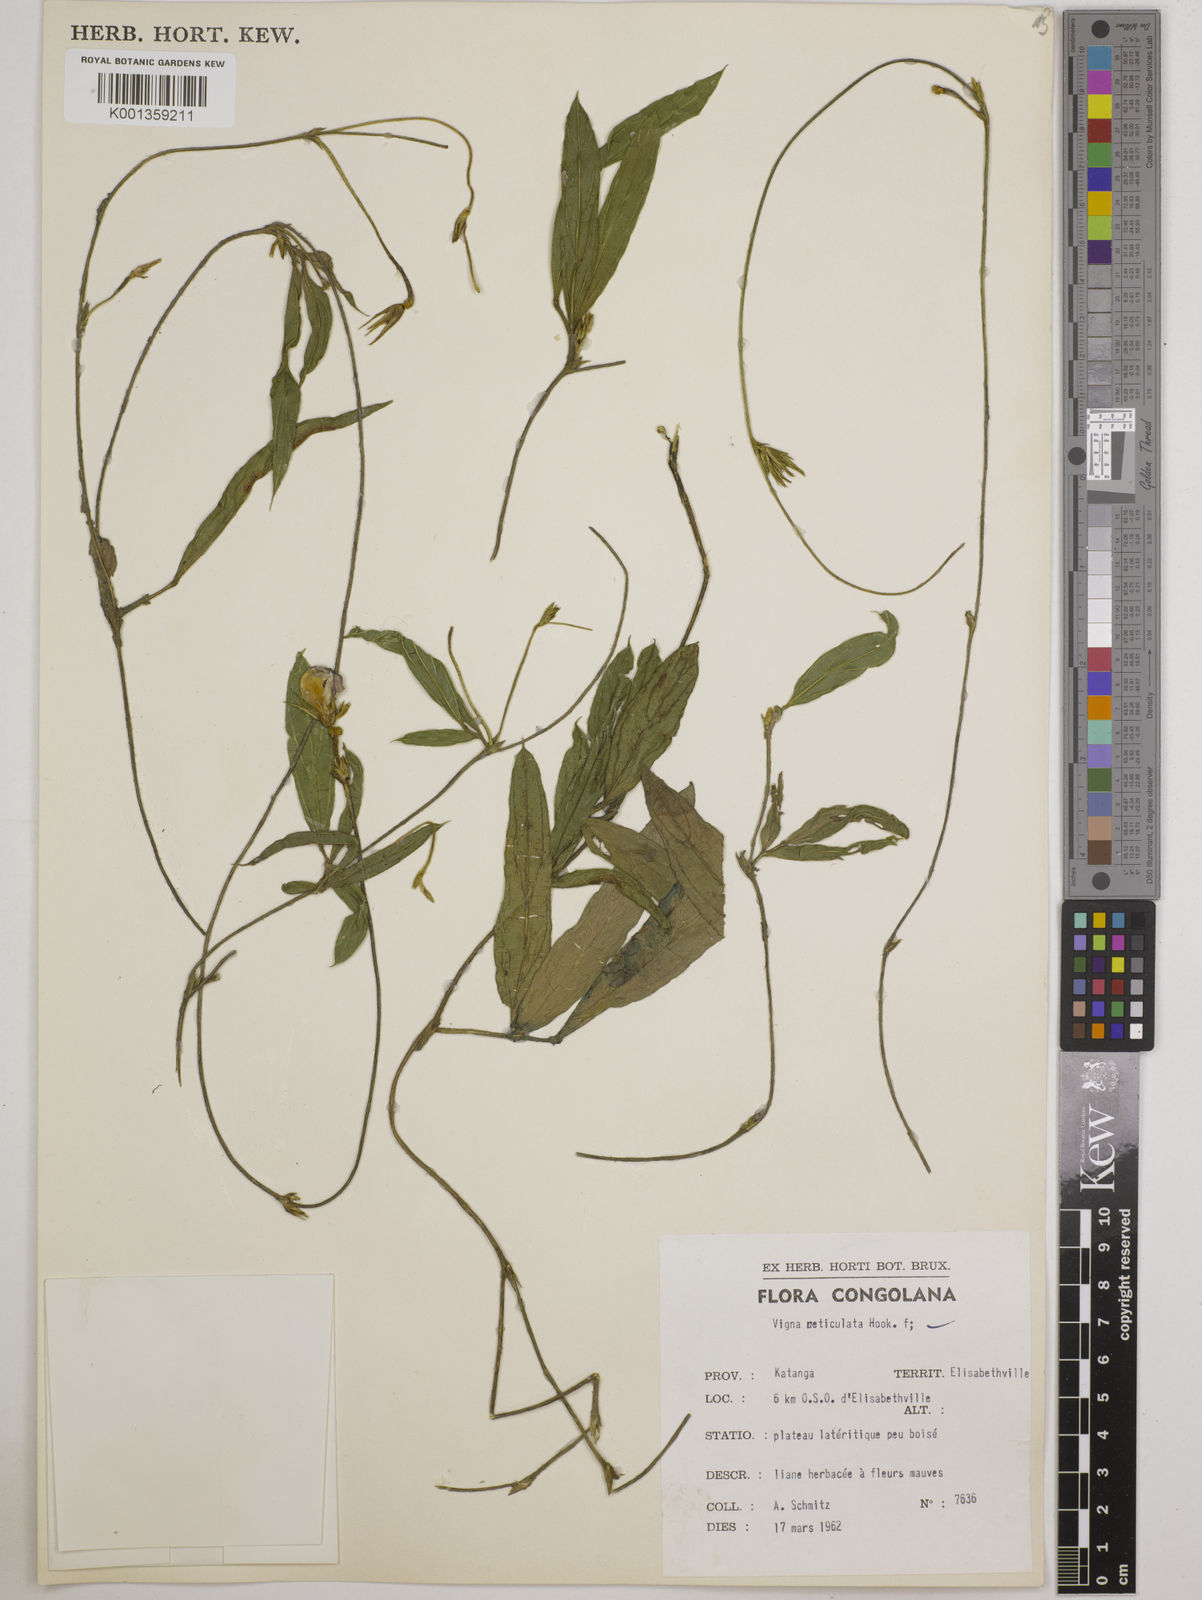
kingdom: Plantae
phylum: Tracheophyta
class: Magnoliopsida
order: Fabales
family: Fabaceae
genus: Vigna
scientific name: Vigna reticulata
